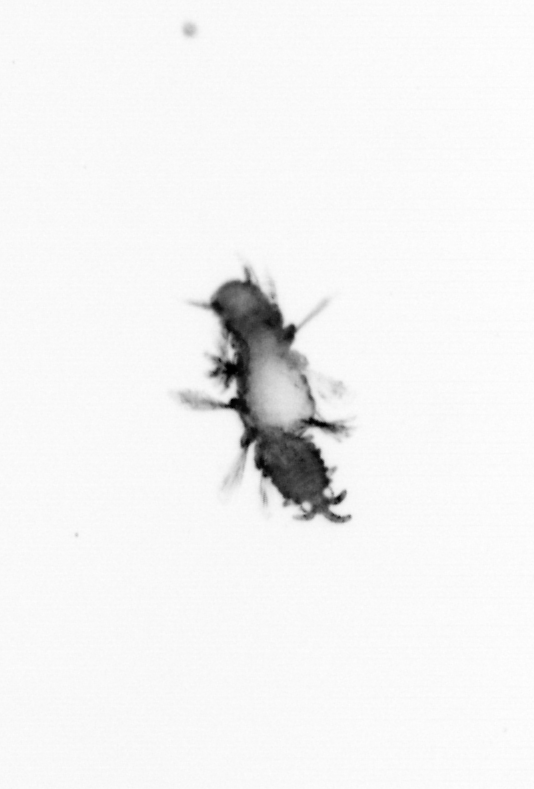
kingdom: Animalia
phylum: Annelida
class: Polychaeta
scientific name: Polychaeta
